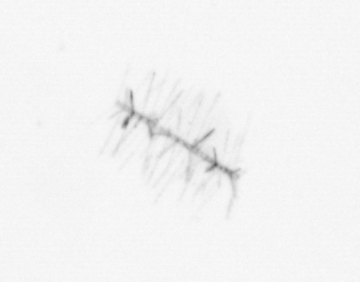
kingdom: Chromista
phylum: Ochrophyta
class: Bacillariophyceae
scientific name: Bacillariophyceae
